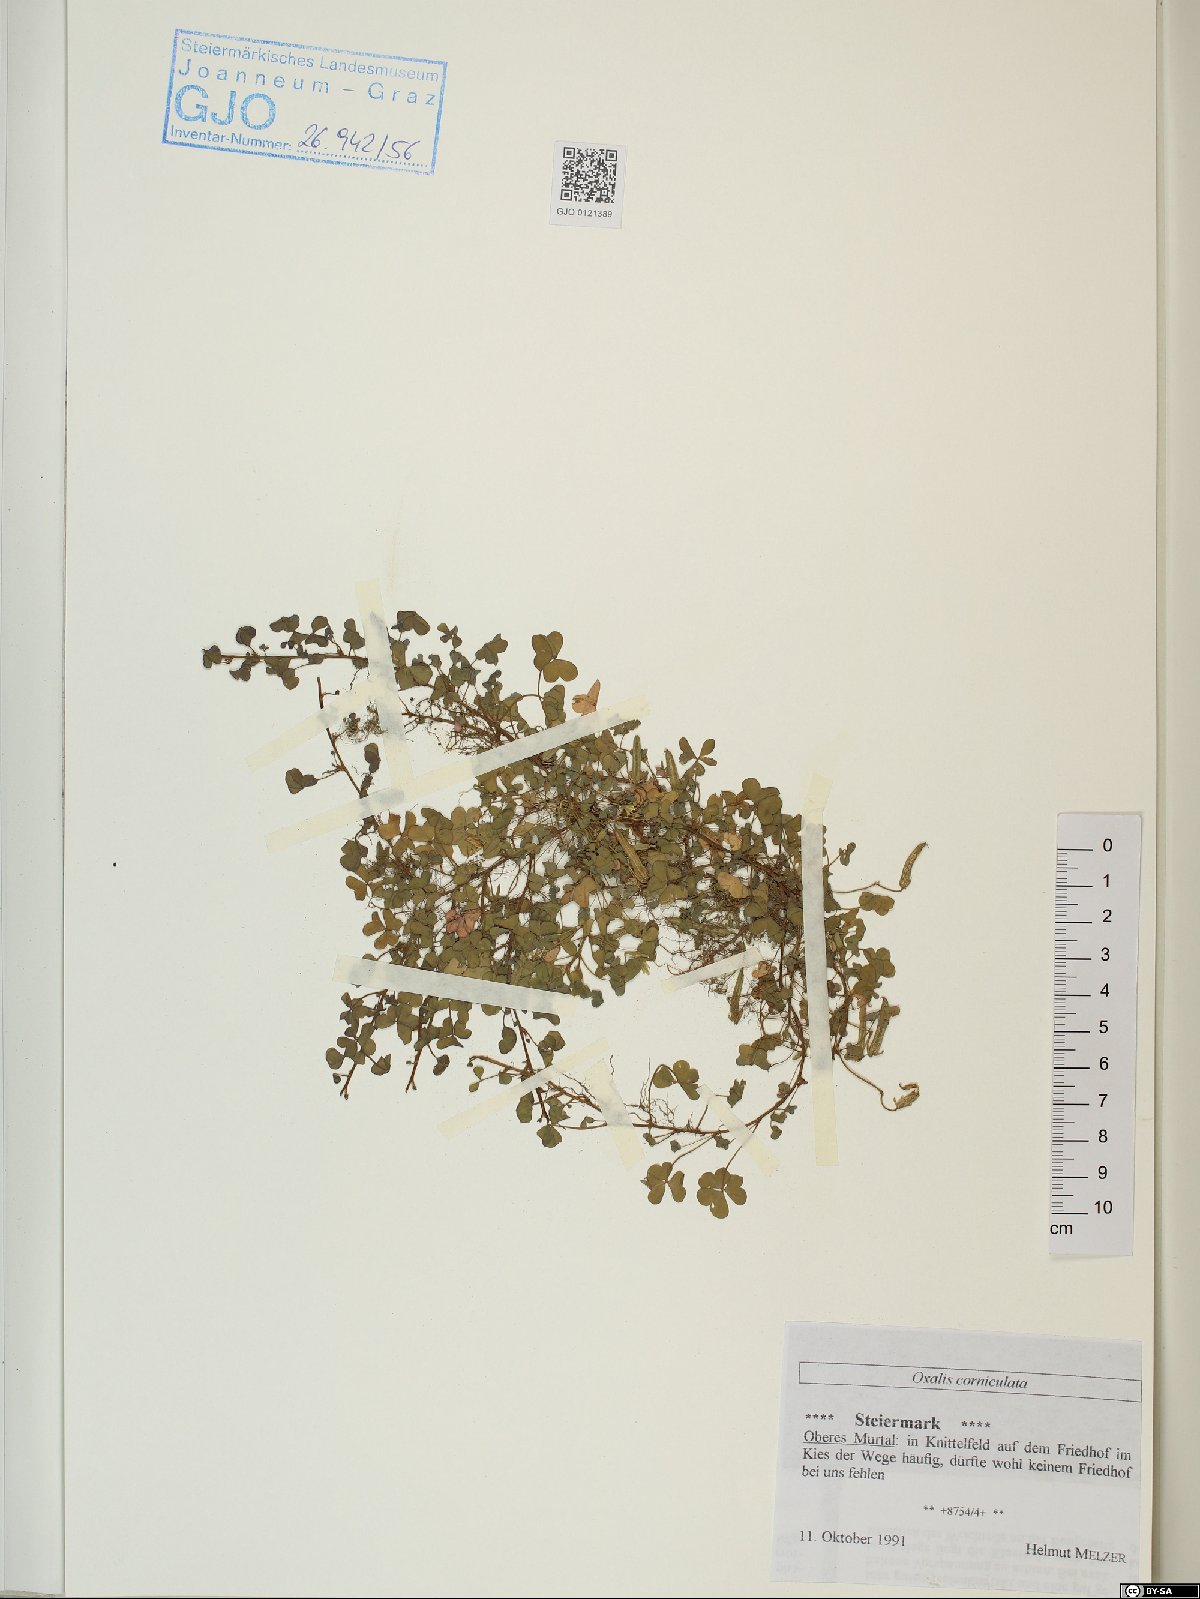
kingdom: Plantae
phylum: Tracheophyta
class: Magnoliopsida
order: Oxalidales
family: Oxalidaceae
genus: Oxalis
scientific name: Oxalis corniculata
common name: Procumbent yellow-sorrel
